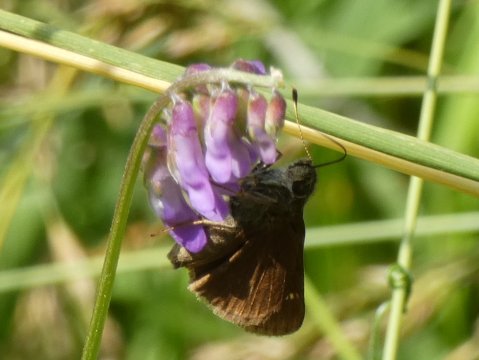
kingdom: Animalia
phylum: Arthropoda
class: Insecta
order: Lepidoptera
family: Hesperiidae
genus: Euphyes
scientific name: Euphyes vestris
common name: Dun Skipper
